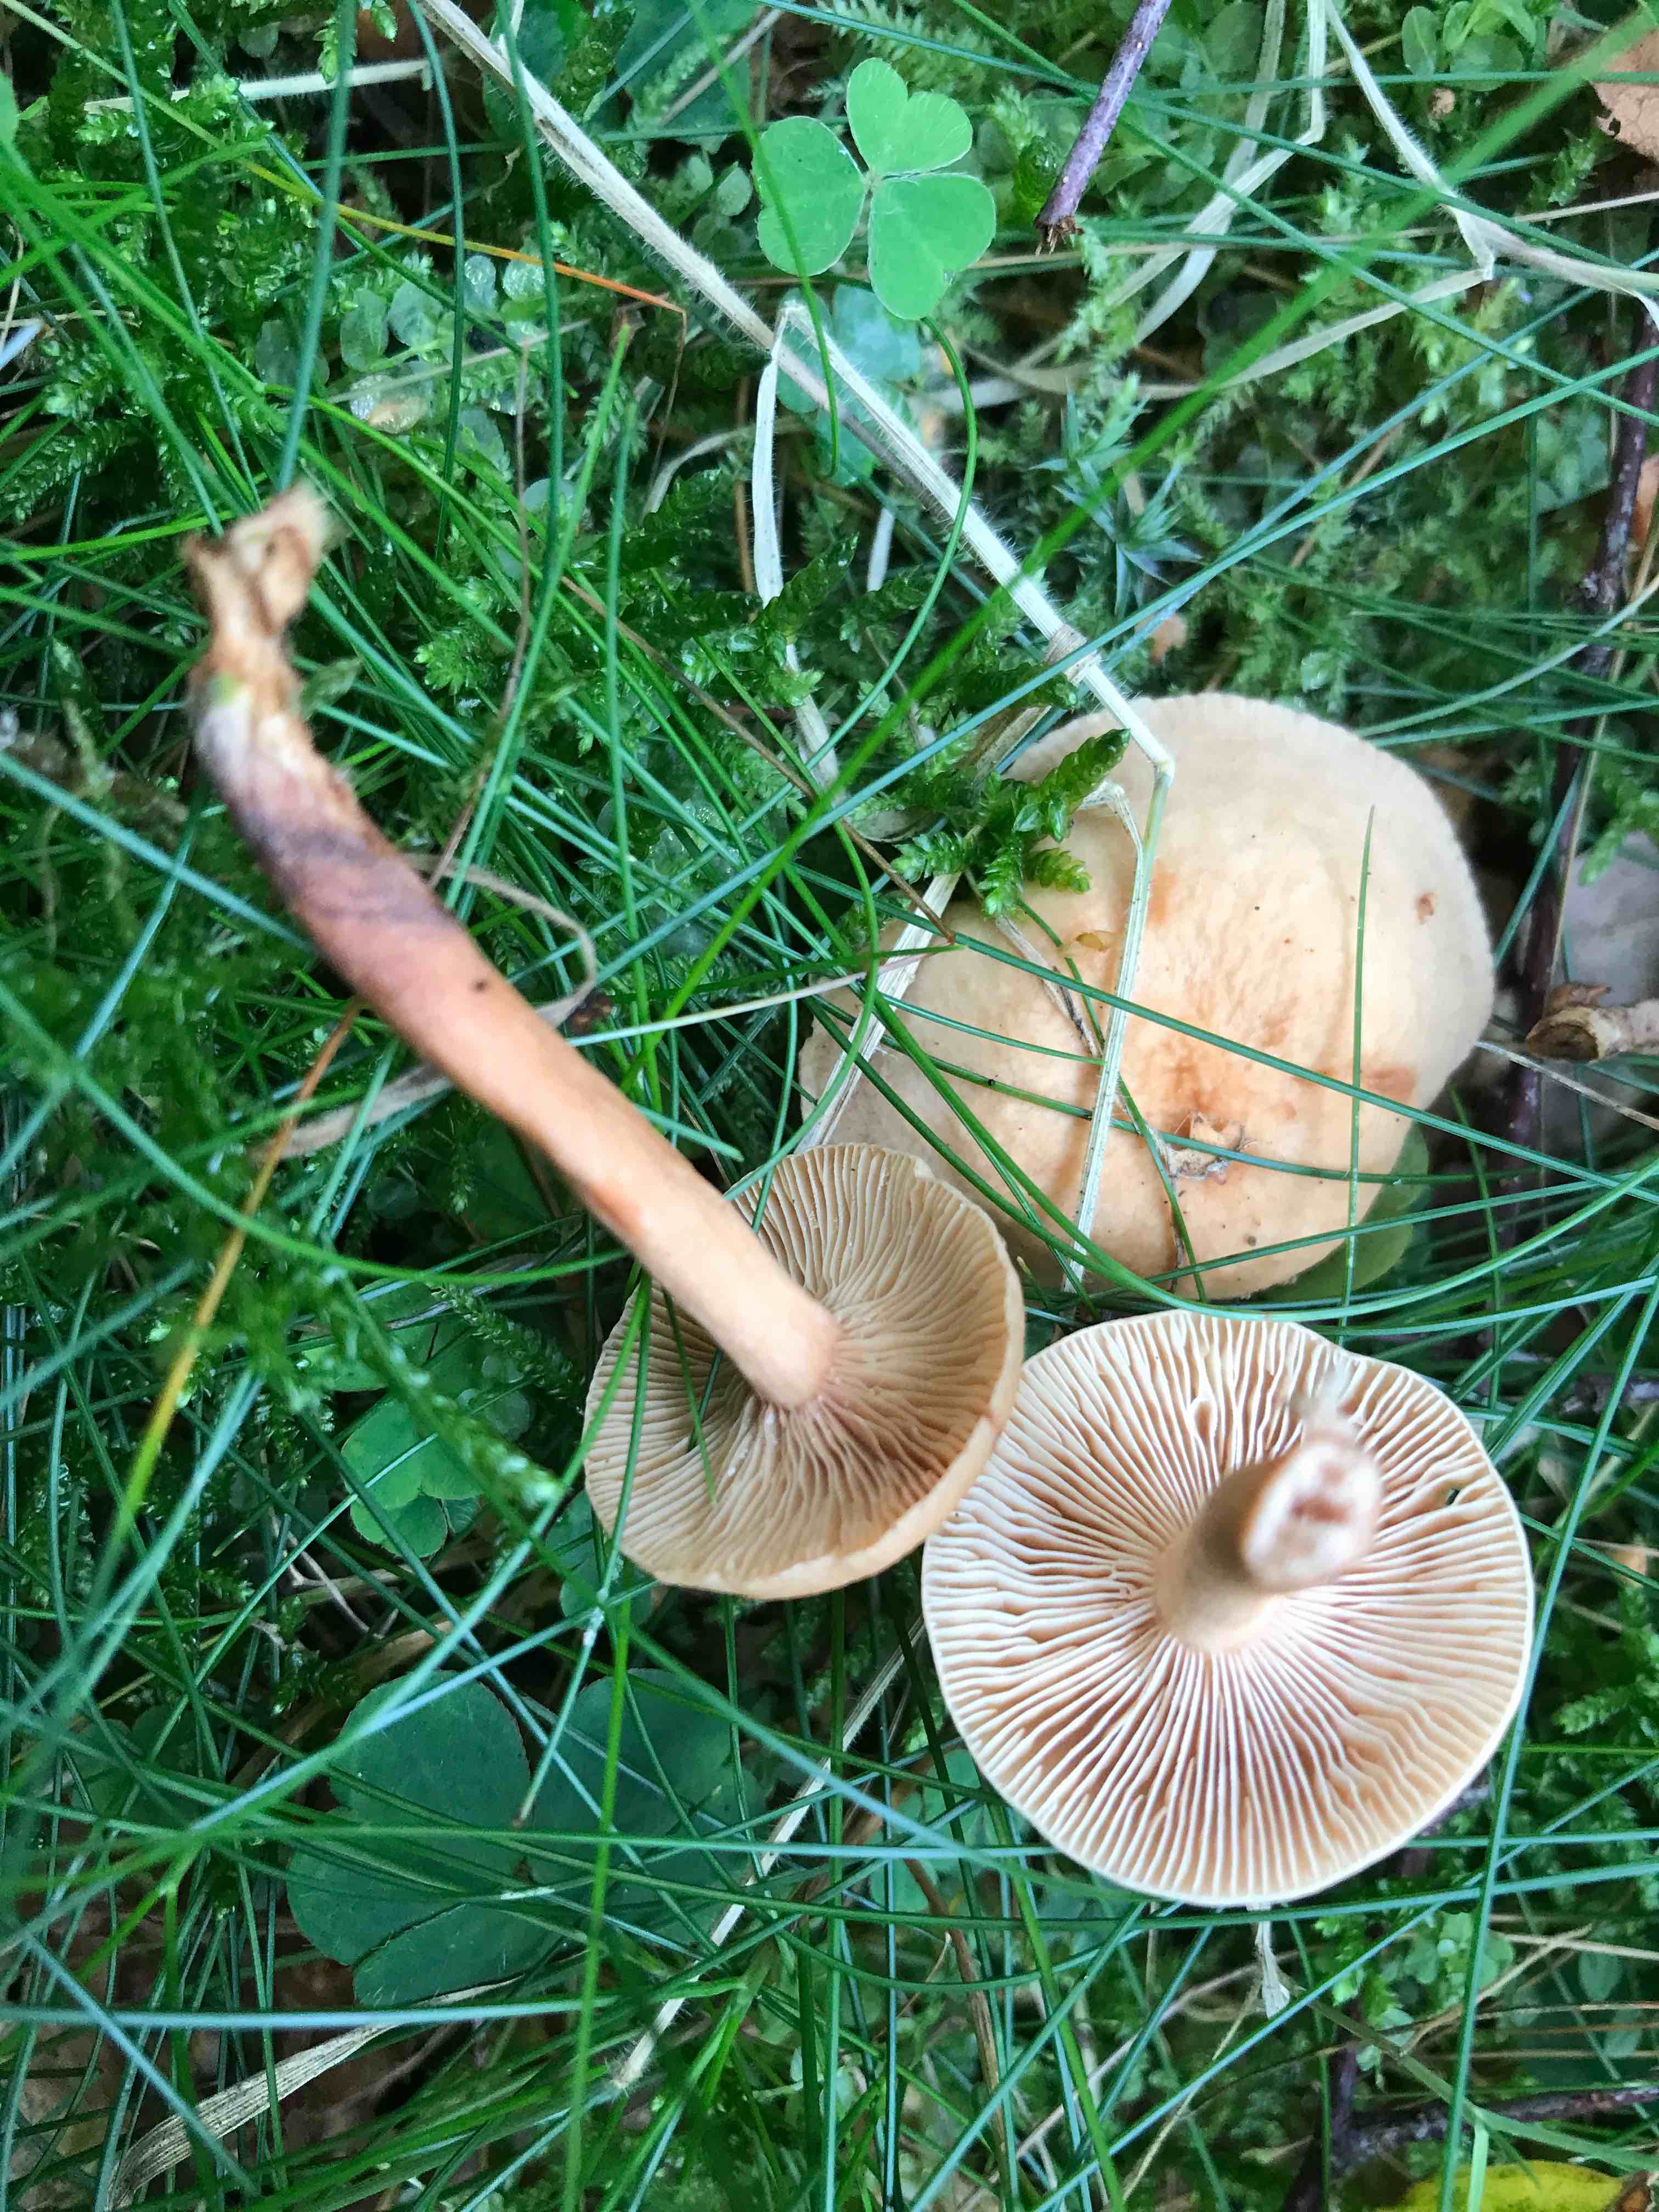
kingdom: Fungi
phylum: Basidiomycota
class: Agaricomycetes
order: Russulales
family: Russulaceae
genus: Lactarius
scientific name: Lactarius tabidus
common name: rynket mælkehat
